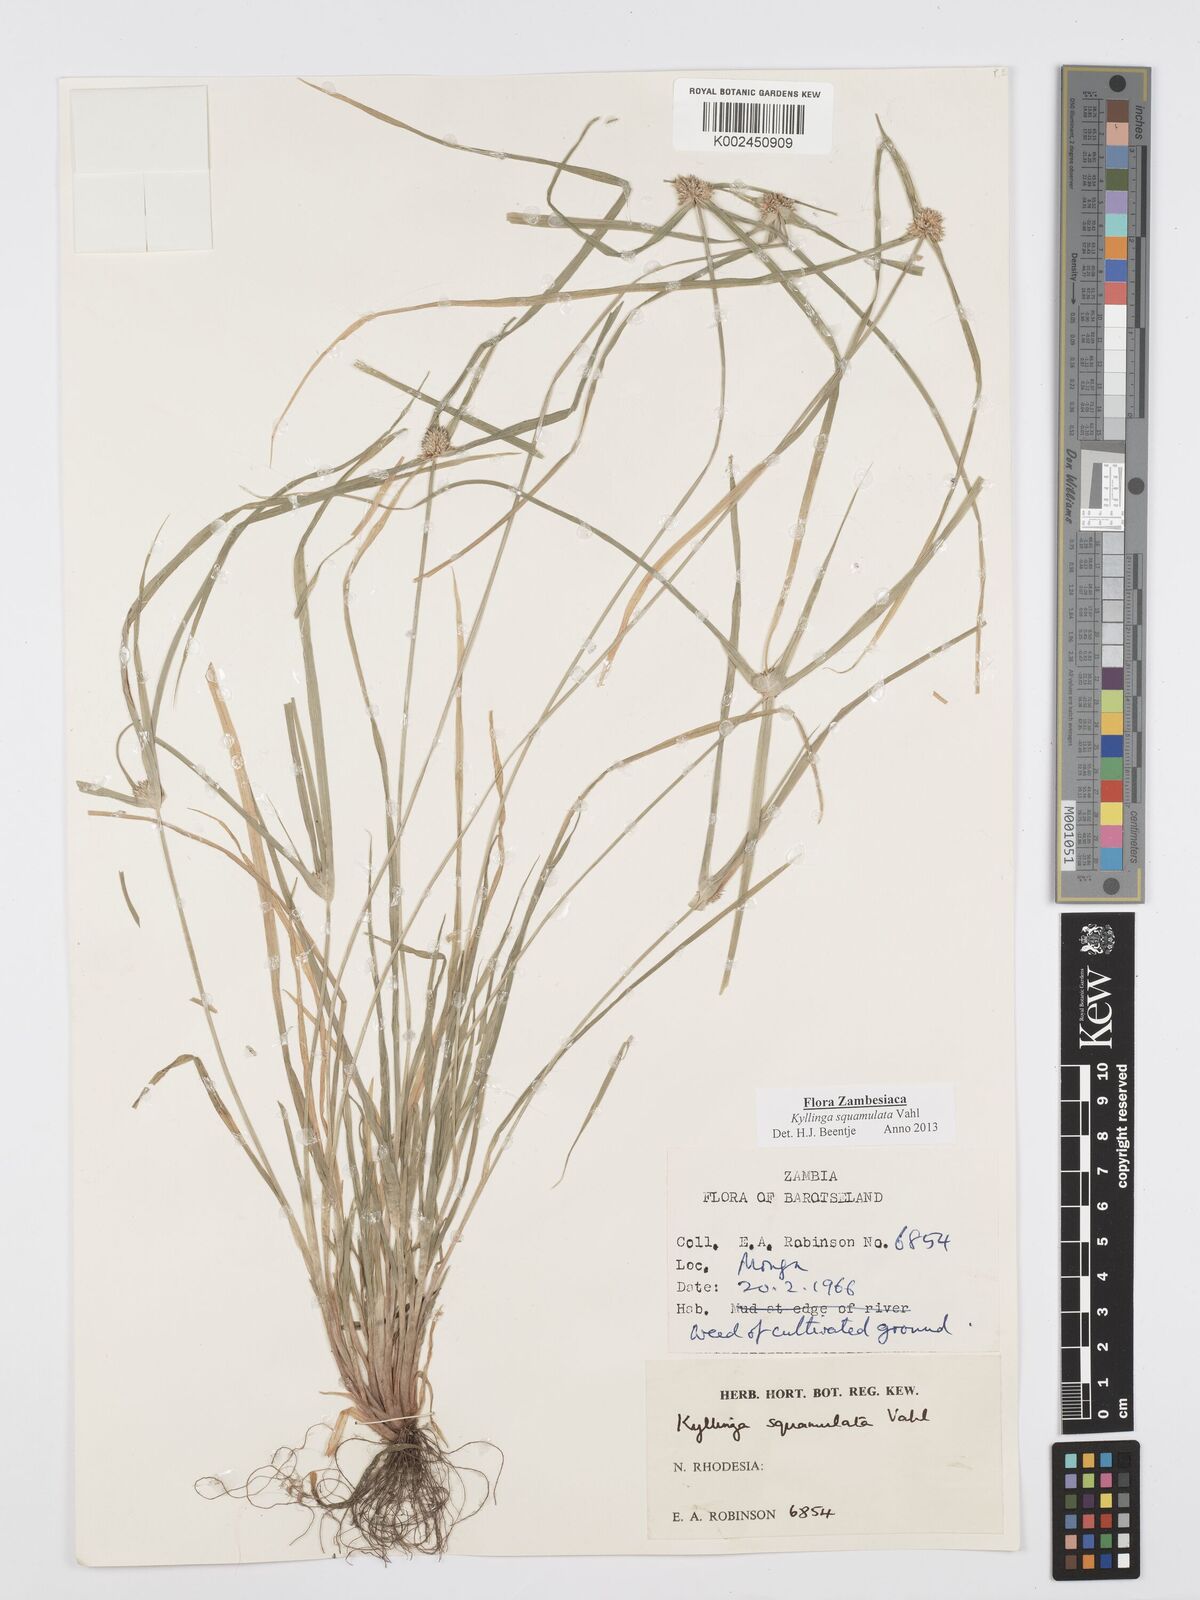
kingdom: Plantae
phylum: Tracheophyta
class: Liliopsida
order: Poales
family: Cyperaceae
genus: Cyperus
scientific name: Cyperus distans
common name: Slender cyperus
